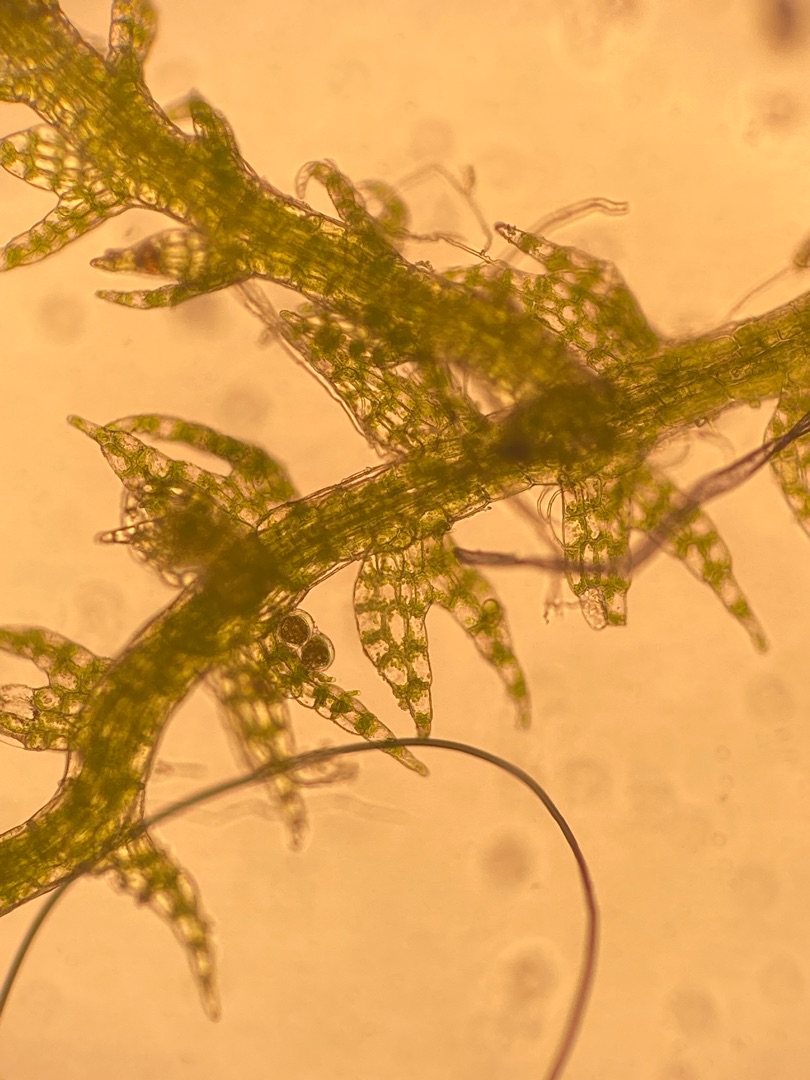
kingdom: Plantae
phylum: Marchantiophyta
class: Jungermanniopsida
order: Jungermanniales
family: Cephaloziaceae
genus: Cephalozia
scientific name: Cephalozia bicuspidata
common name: Tvespidset kantbæger
